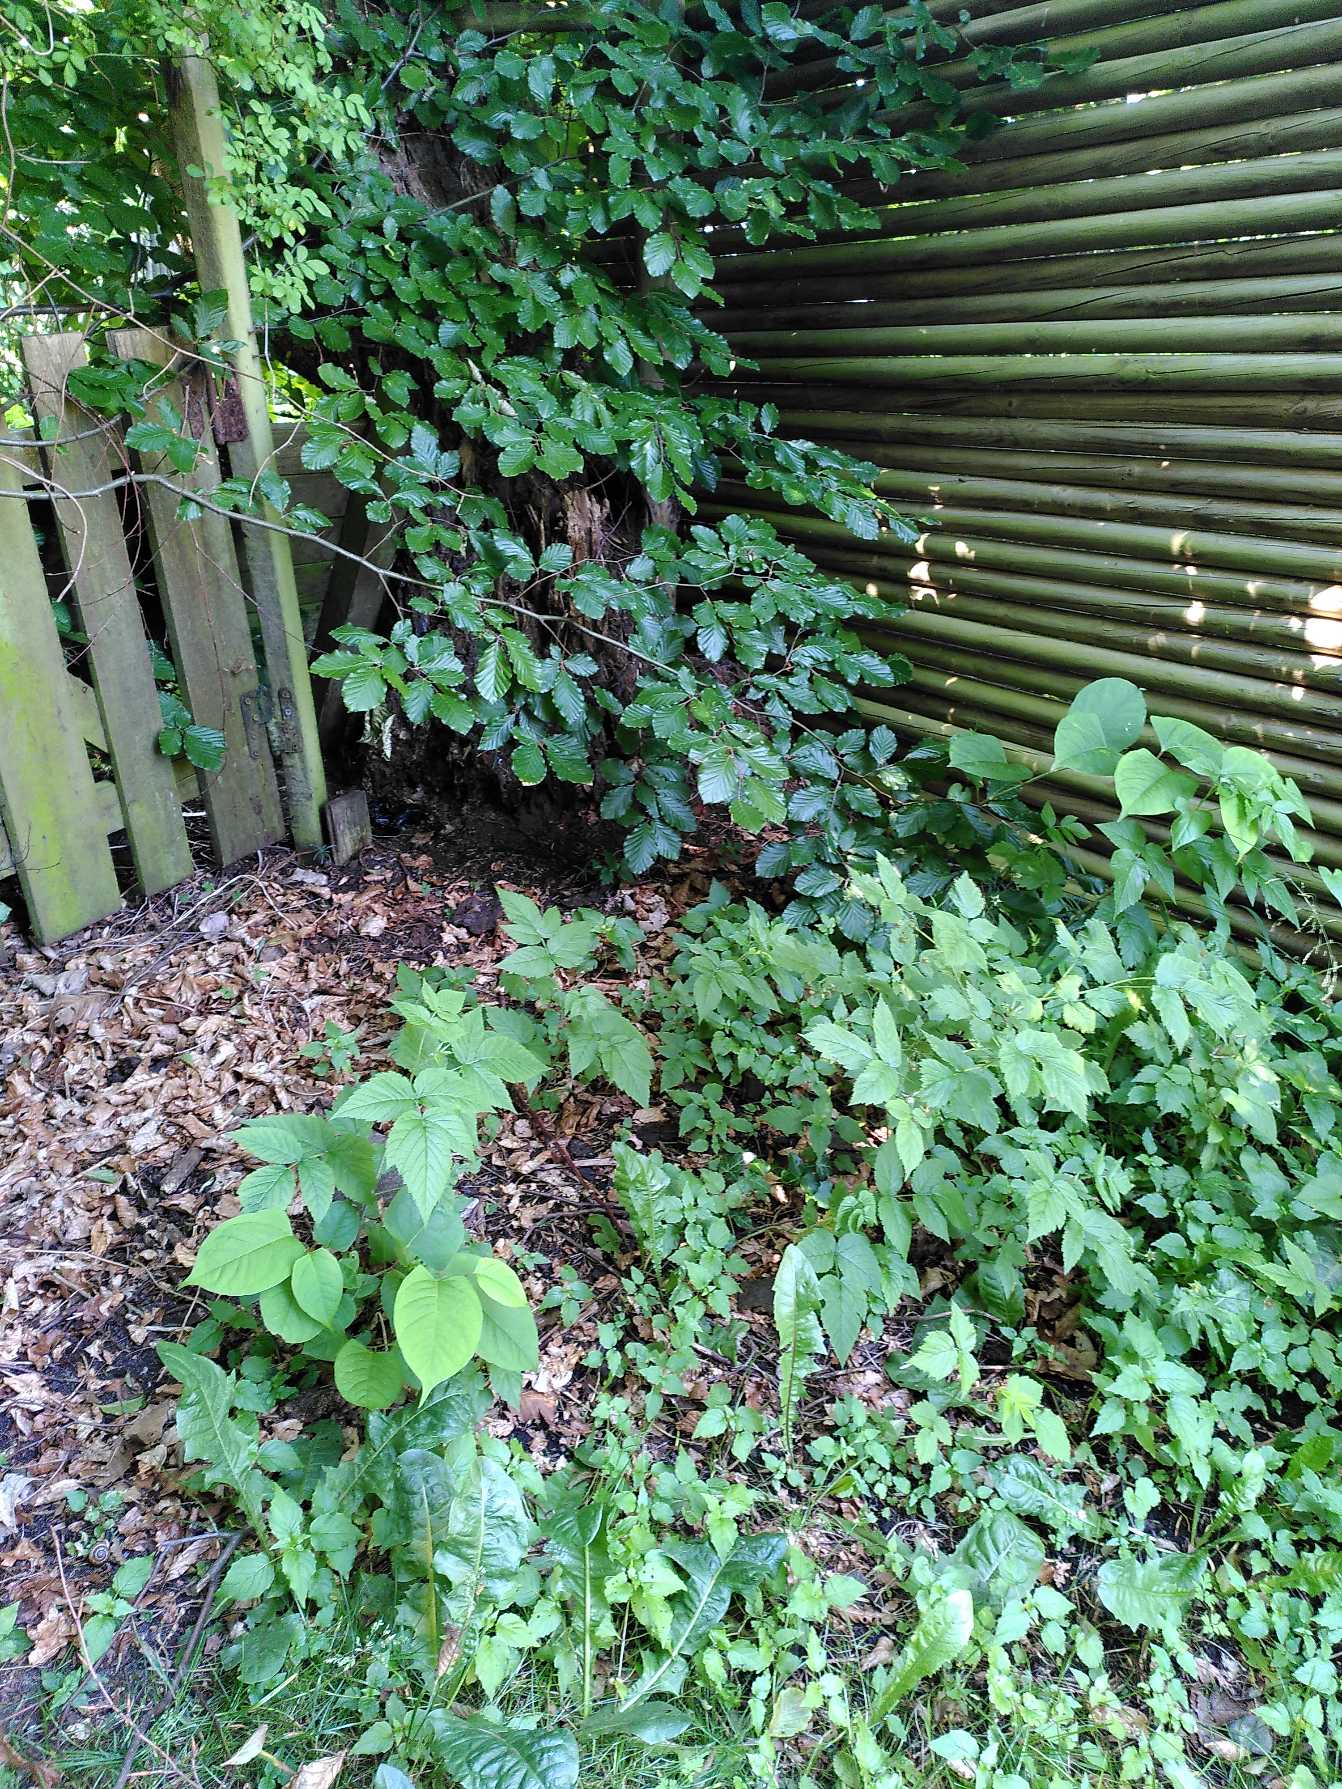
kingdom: Plantae
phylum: Tracheophyta
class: Magnoliopsida
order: Caryophyllales
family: Polygonaceae
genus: Reynoutria
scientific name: Reynoutria japonica
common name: Japan-pileurt
